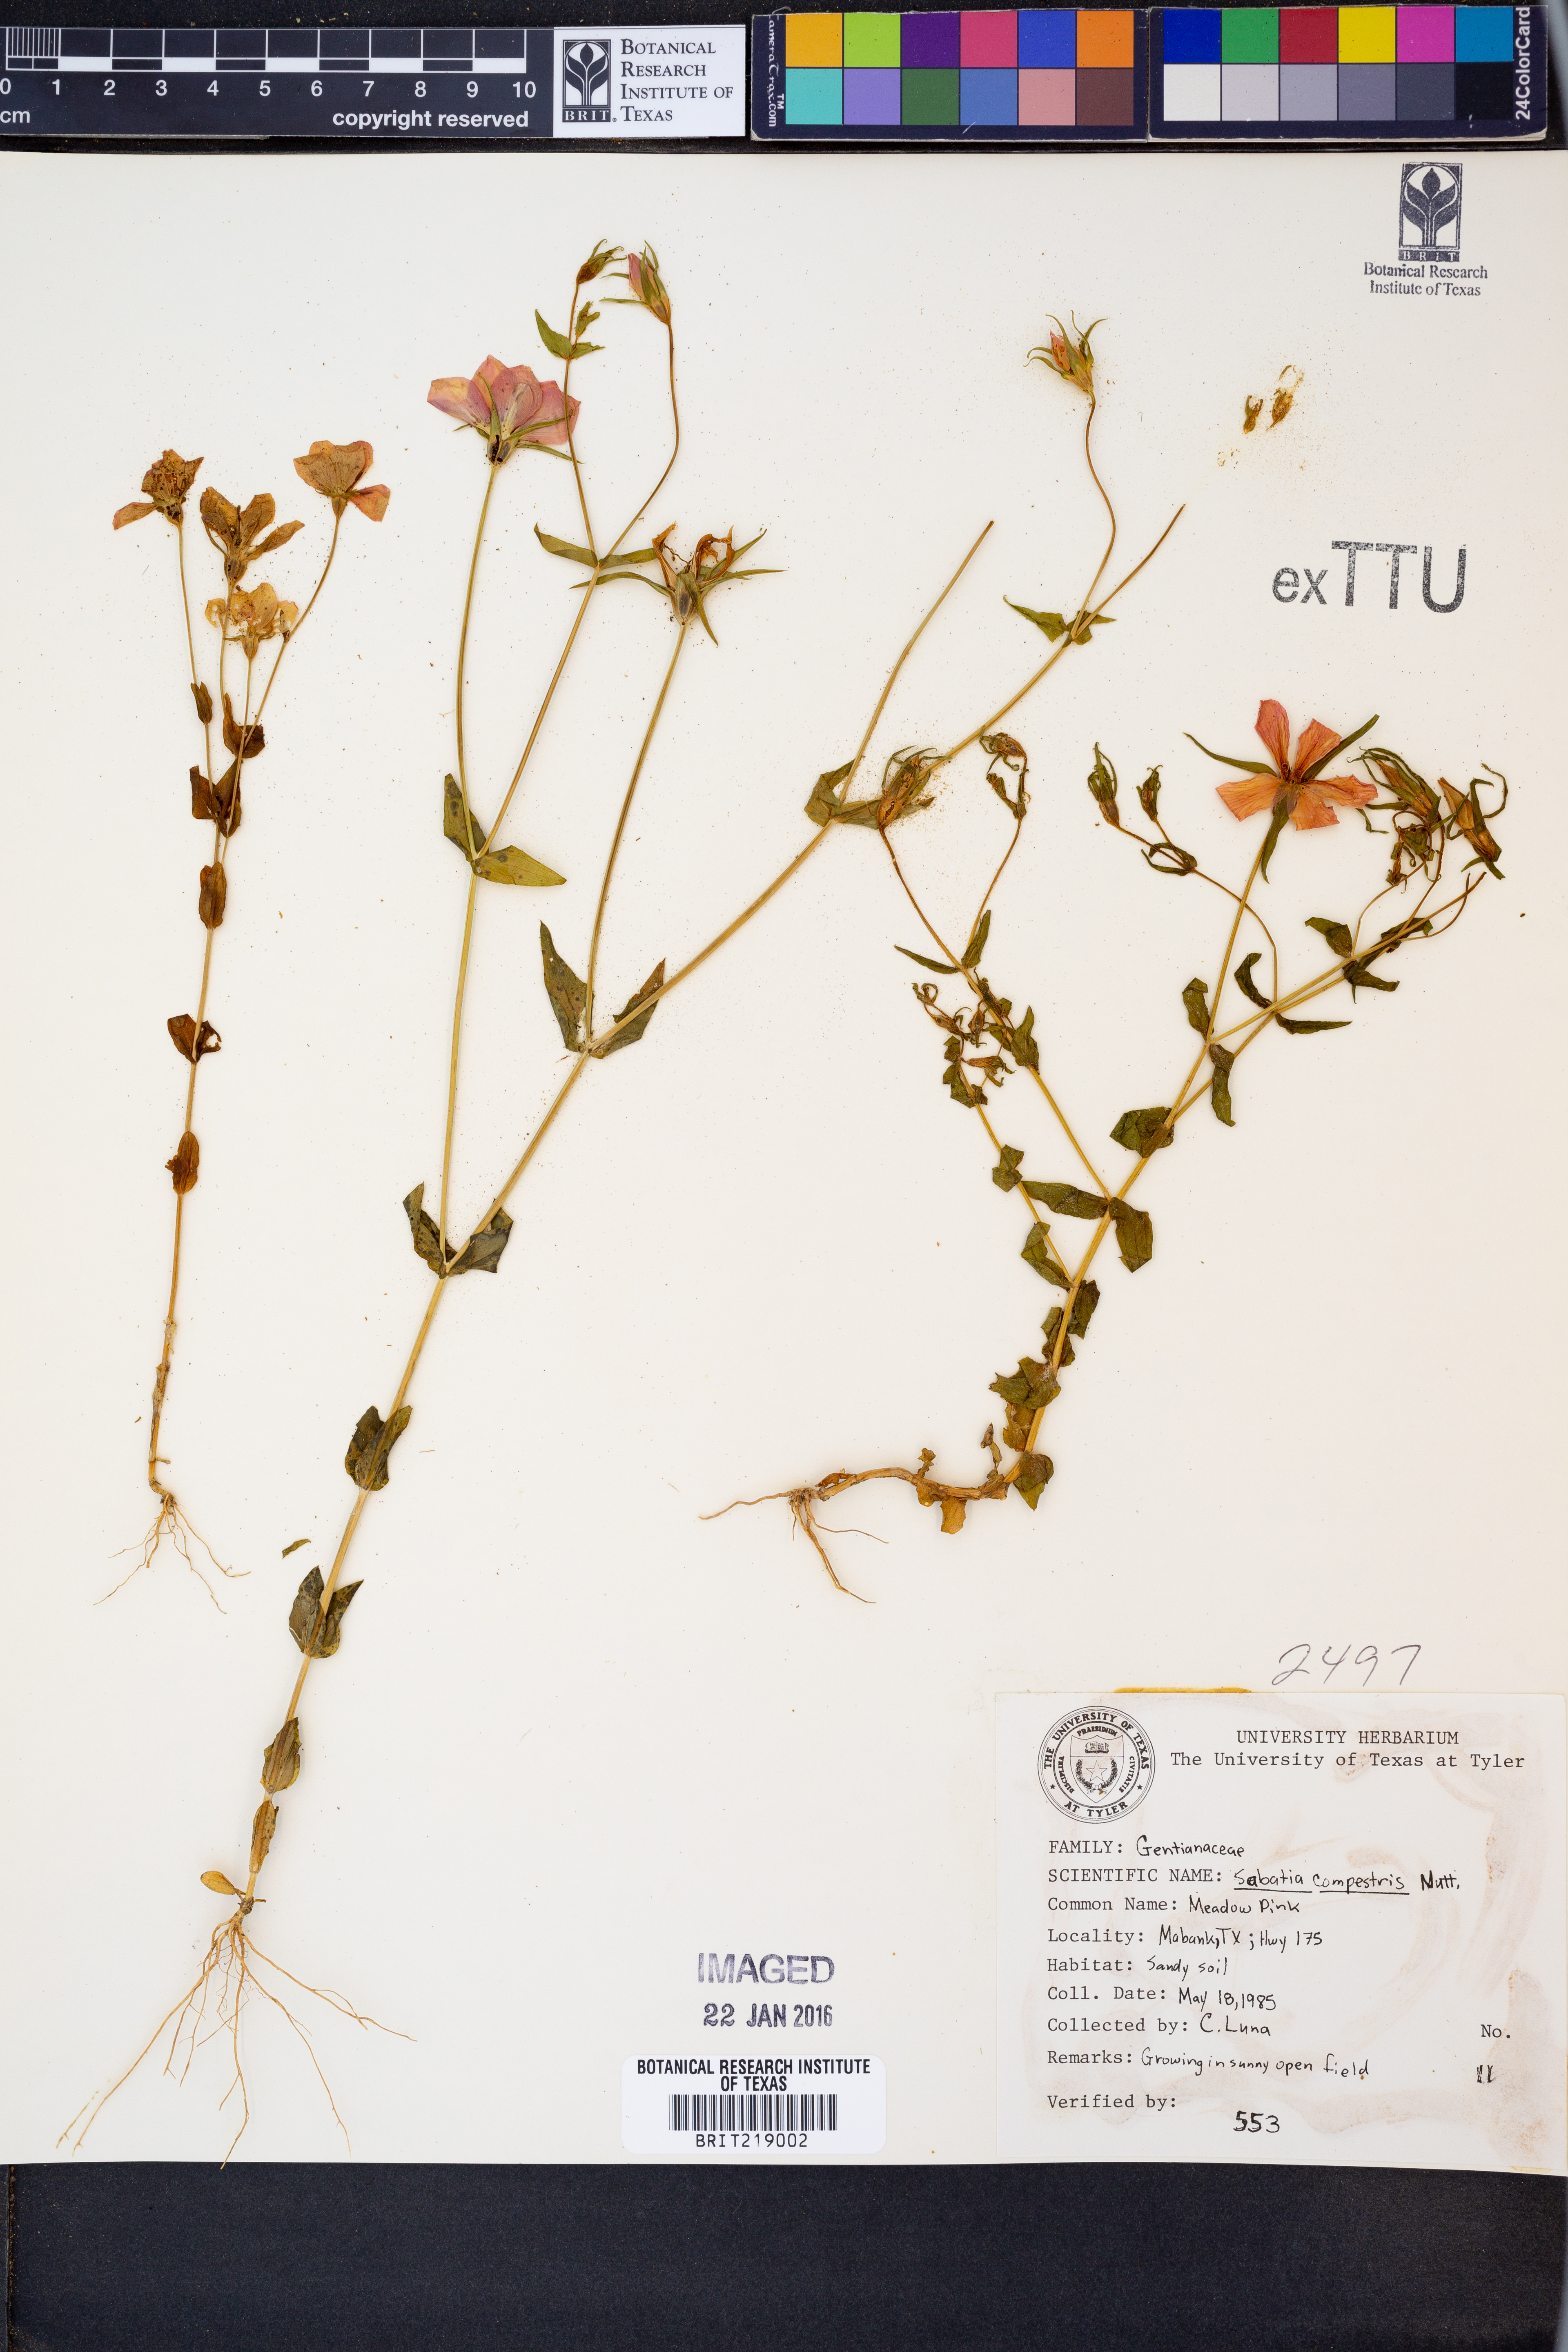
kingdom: Plantae
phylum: Tracheophyta
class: Magnoliopsida
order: Gentianales
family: Gentianaceae
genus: Sabatia
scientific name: Sabatia campestris
